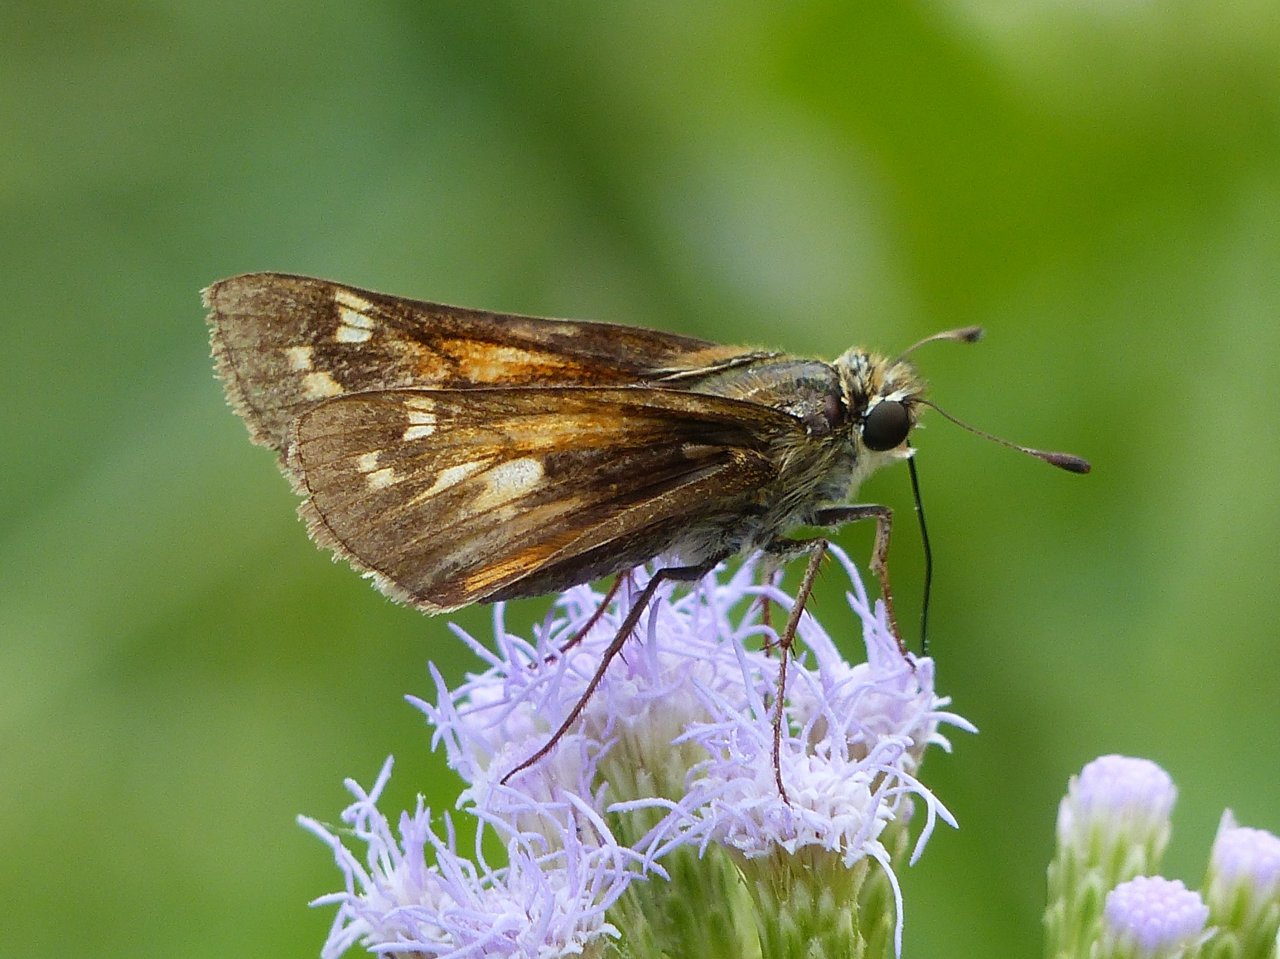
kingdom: Animalia
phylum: Arthropoda
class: Insecta
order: Lepidoptera
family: Hesperiidae
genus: Atalopedes
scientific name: Atalopedes campestris
